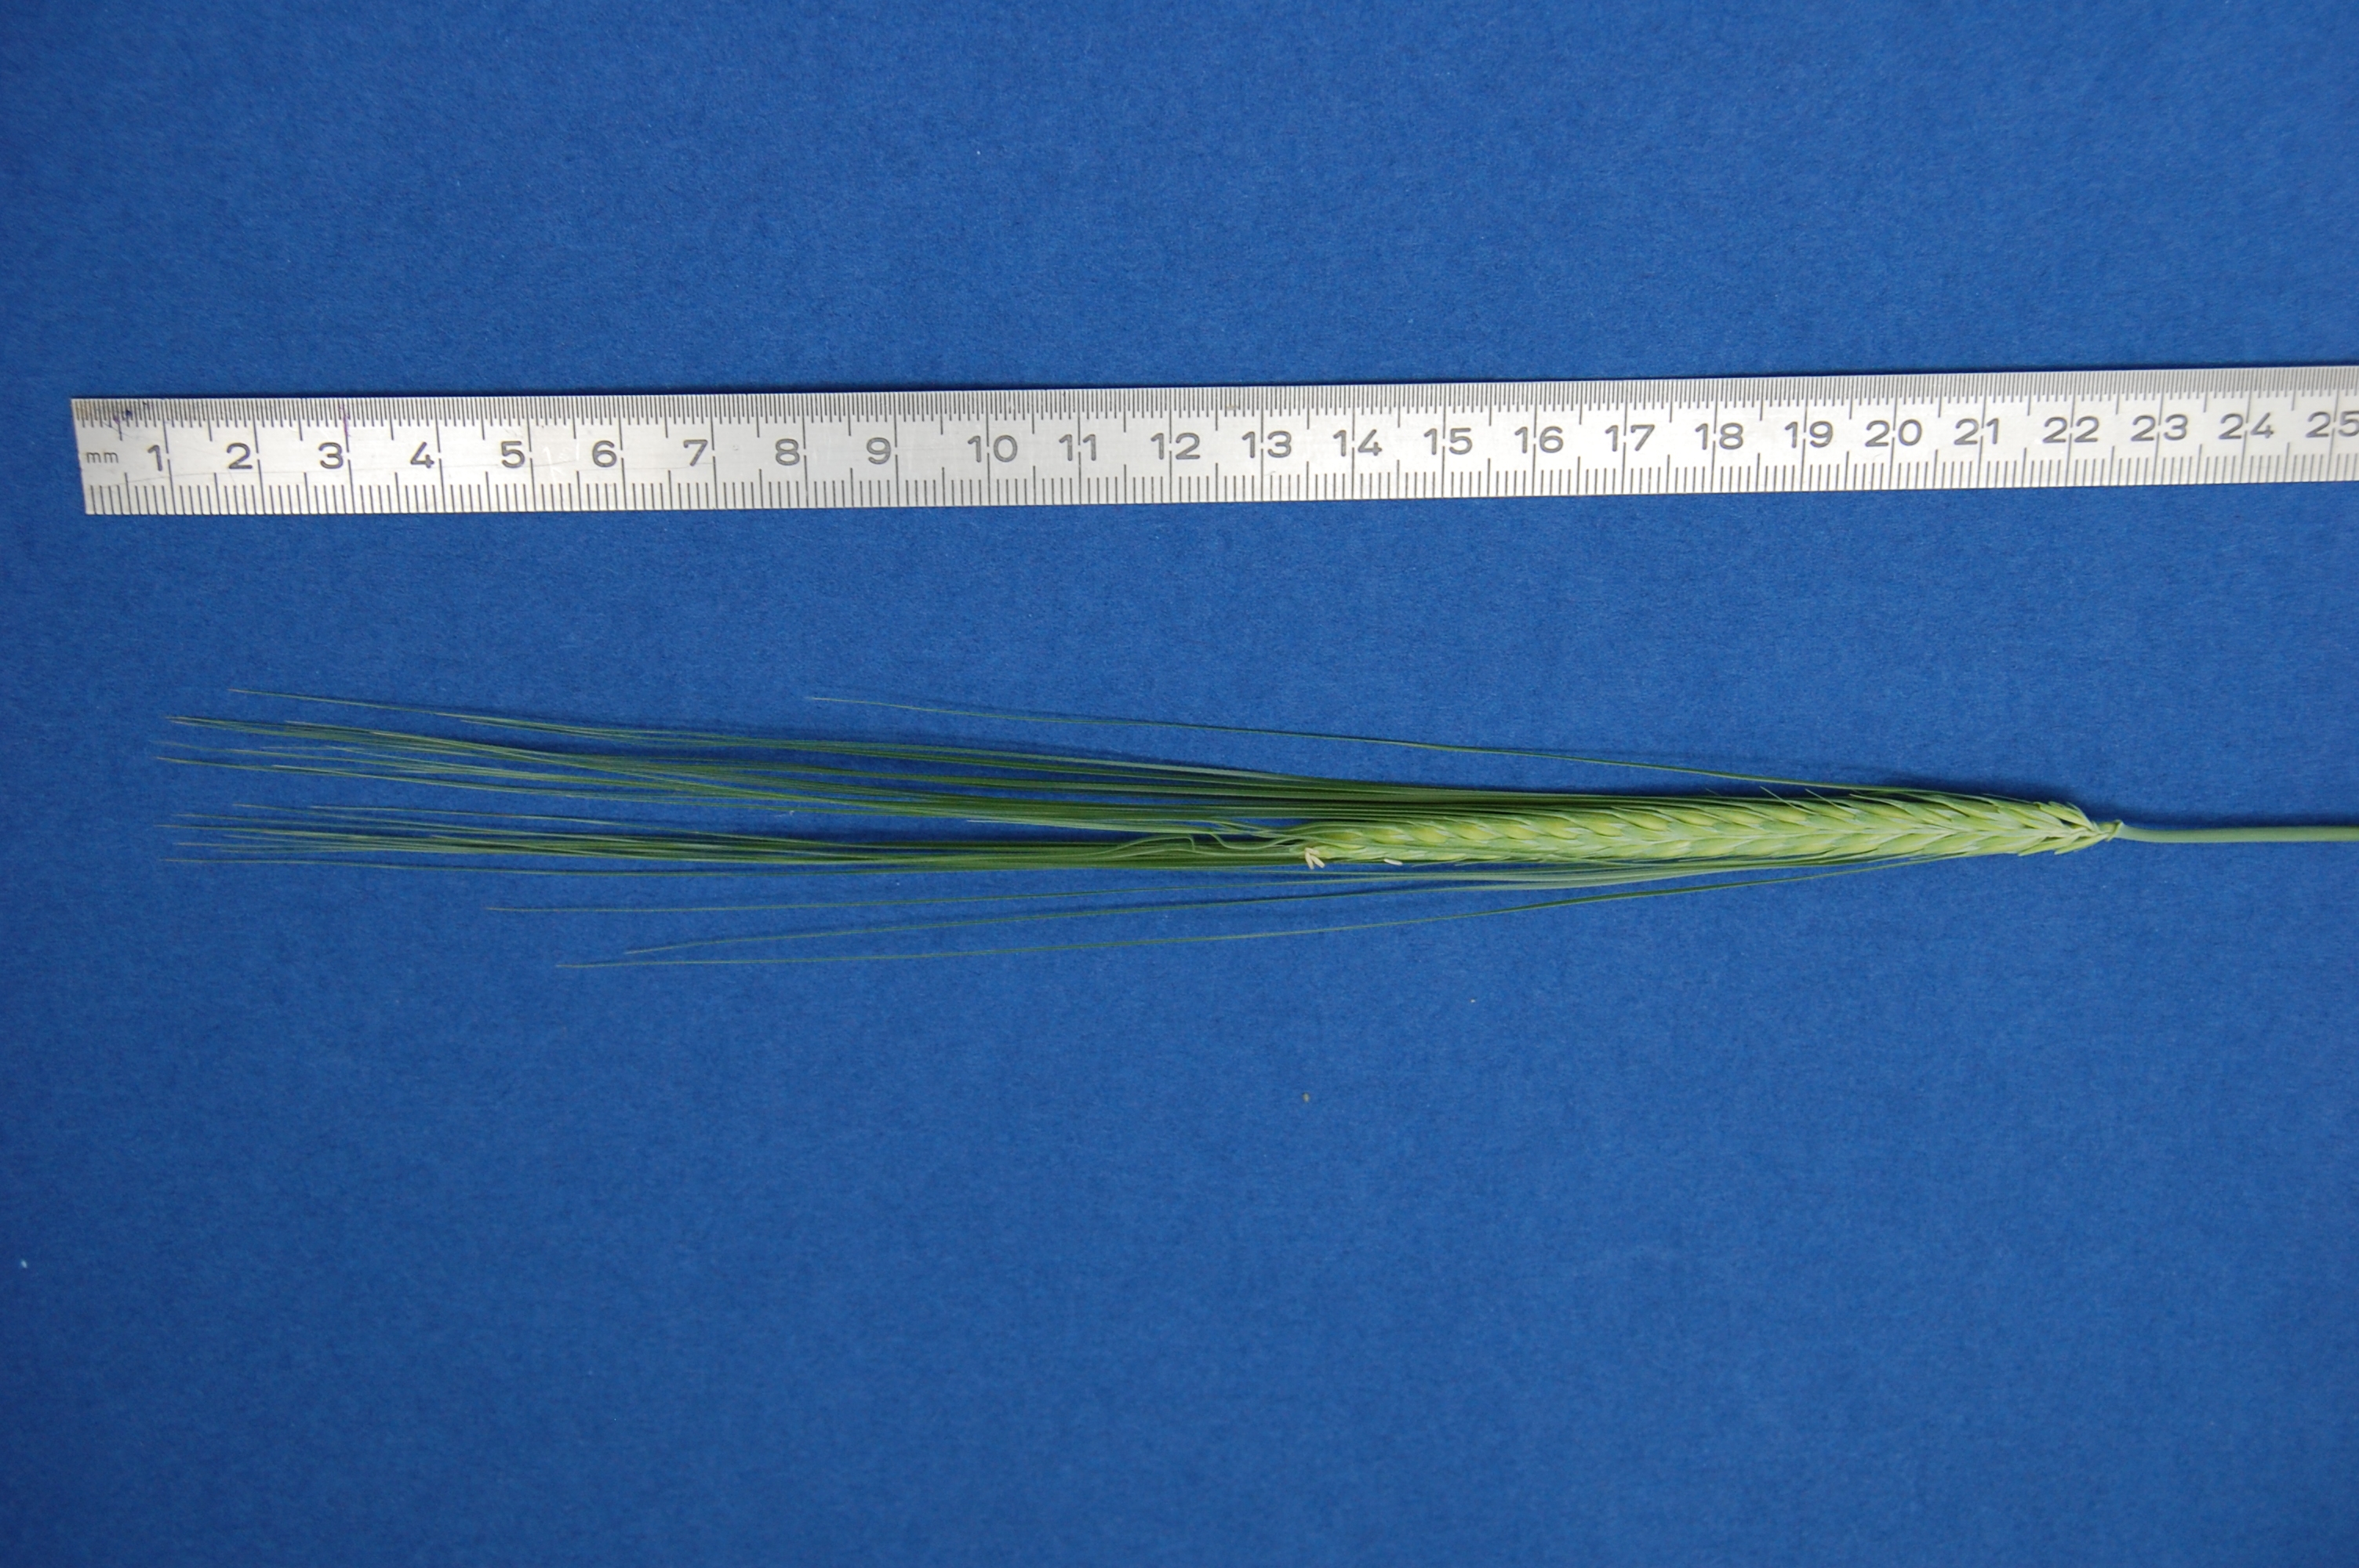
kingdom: Plantae
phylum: Tracheophyta
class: Liliopsida
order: Poales
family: Poaceae
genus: Hordeum
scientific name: Hordeum vulgare
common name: Common barley
